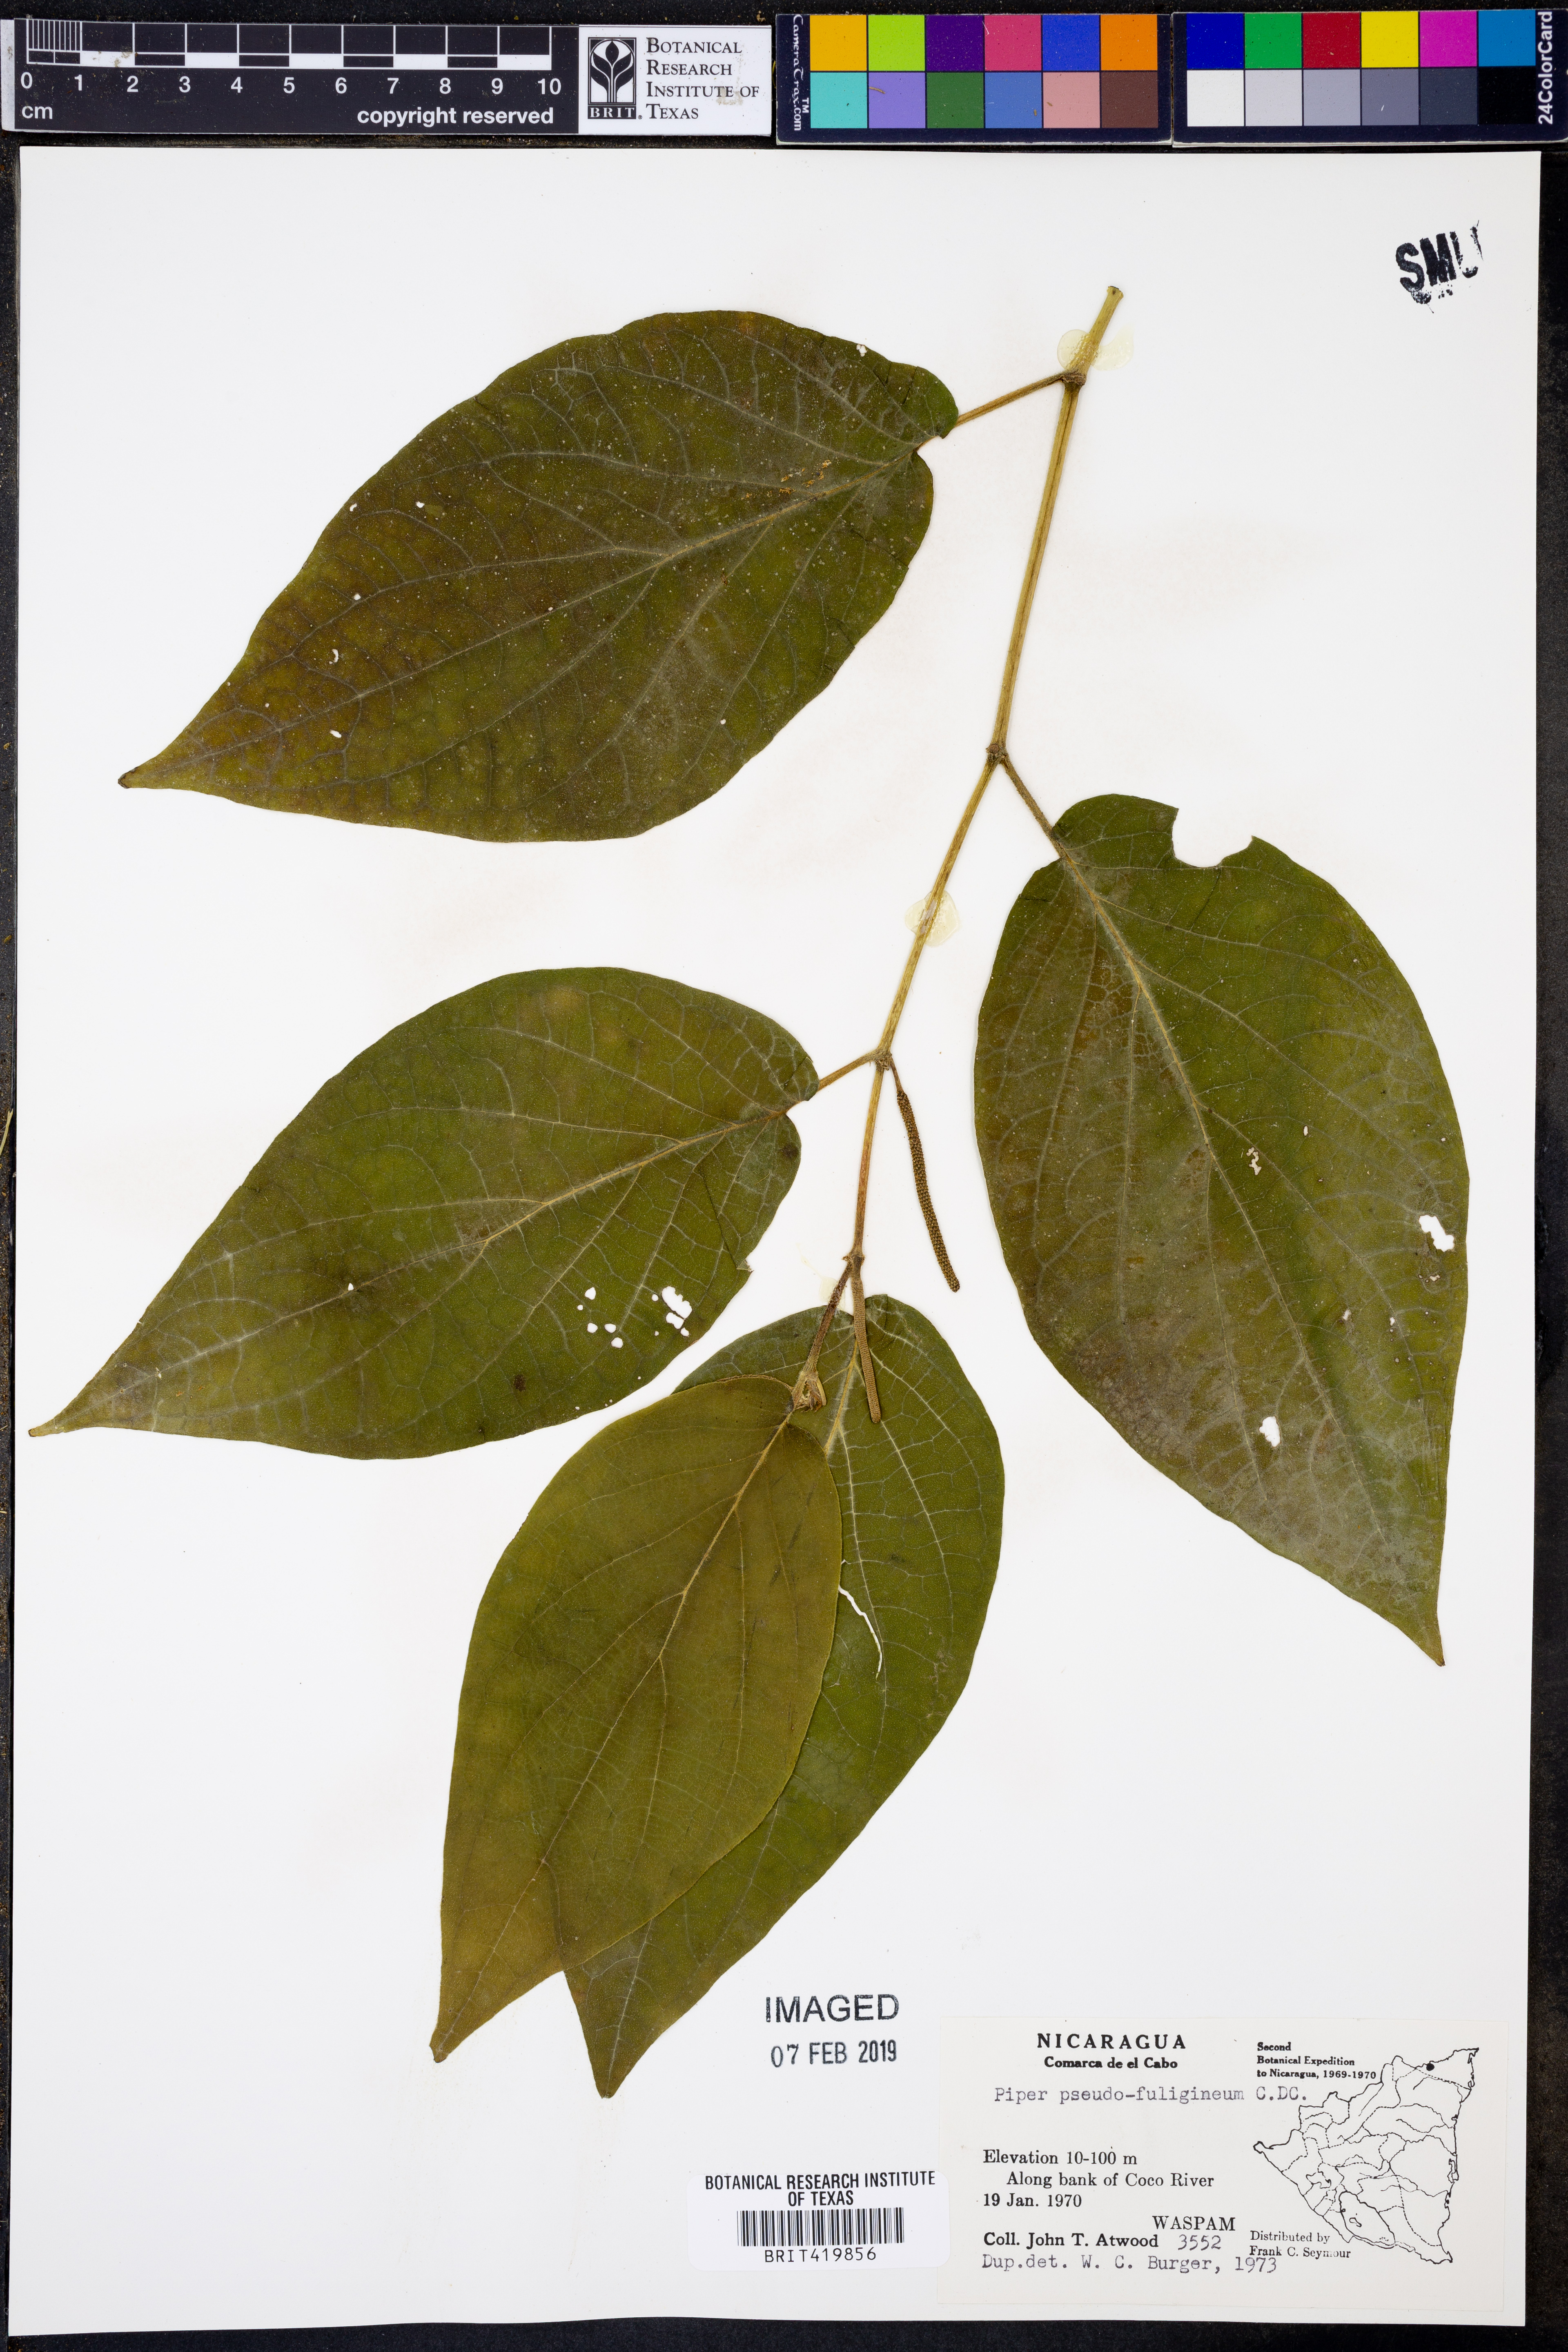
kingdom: Plantae
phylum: Tracheophyta
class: Magnoliopsida
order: Piperales
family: Piperaceae
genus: Piper
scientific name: Piper pseudofuligineum
